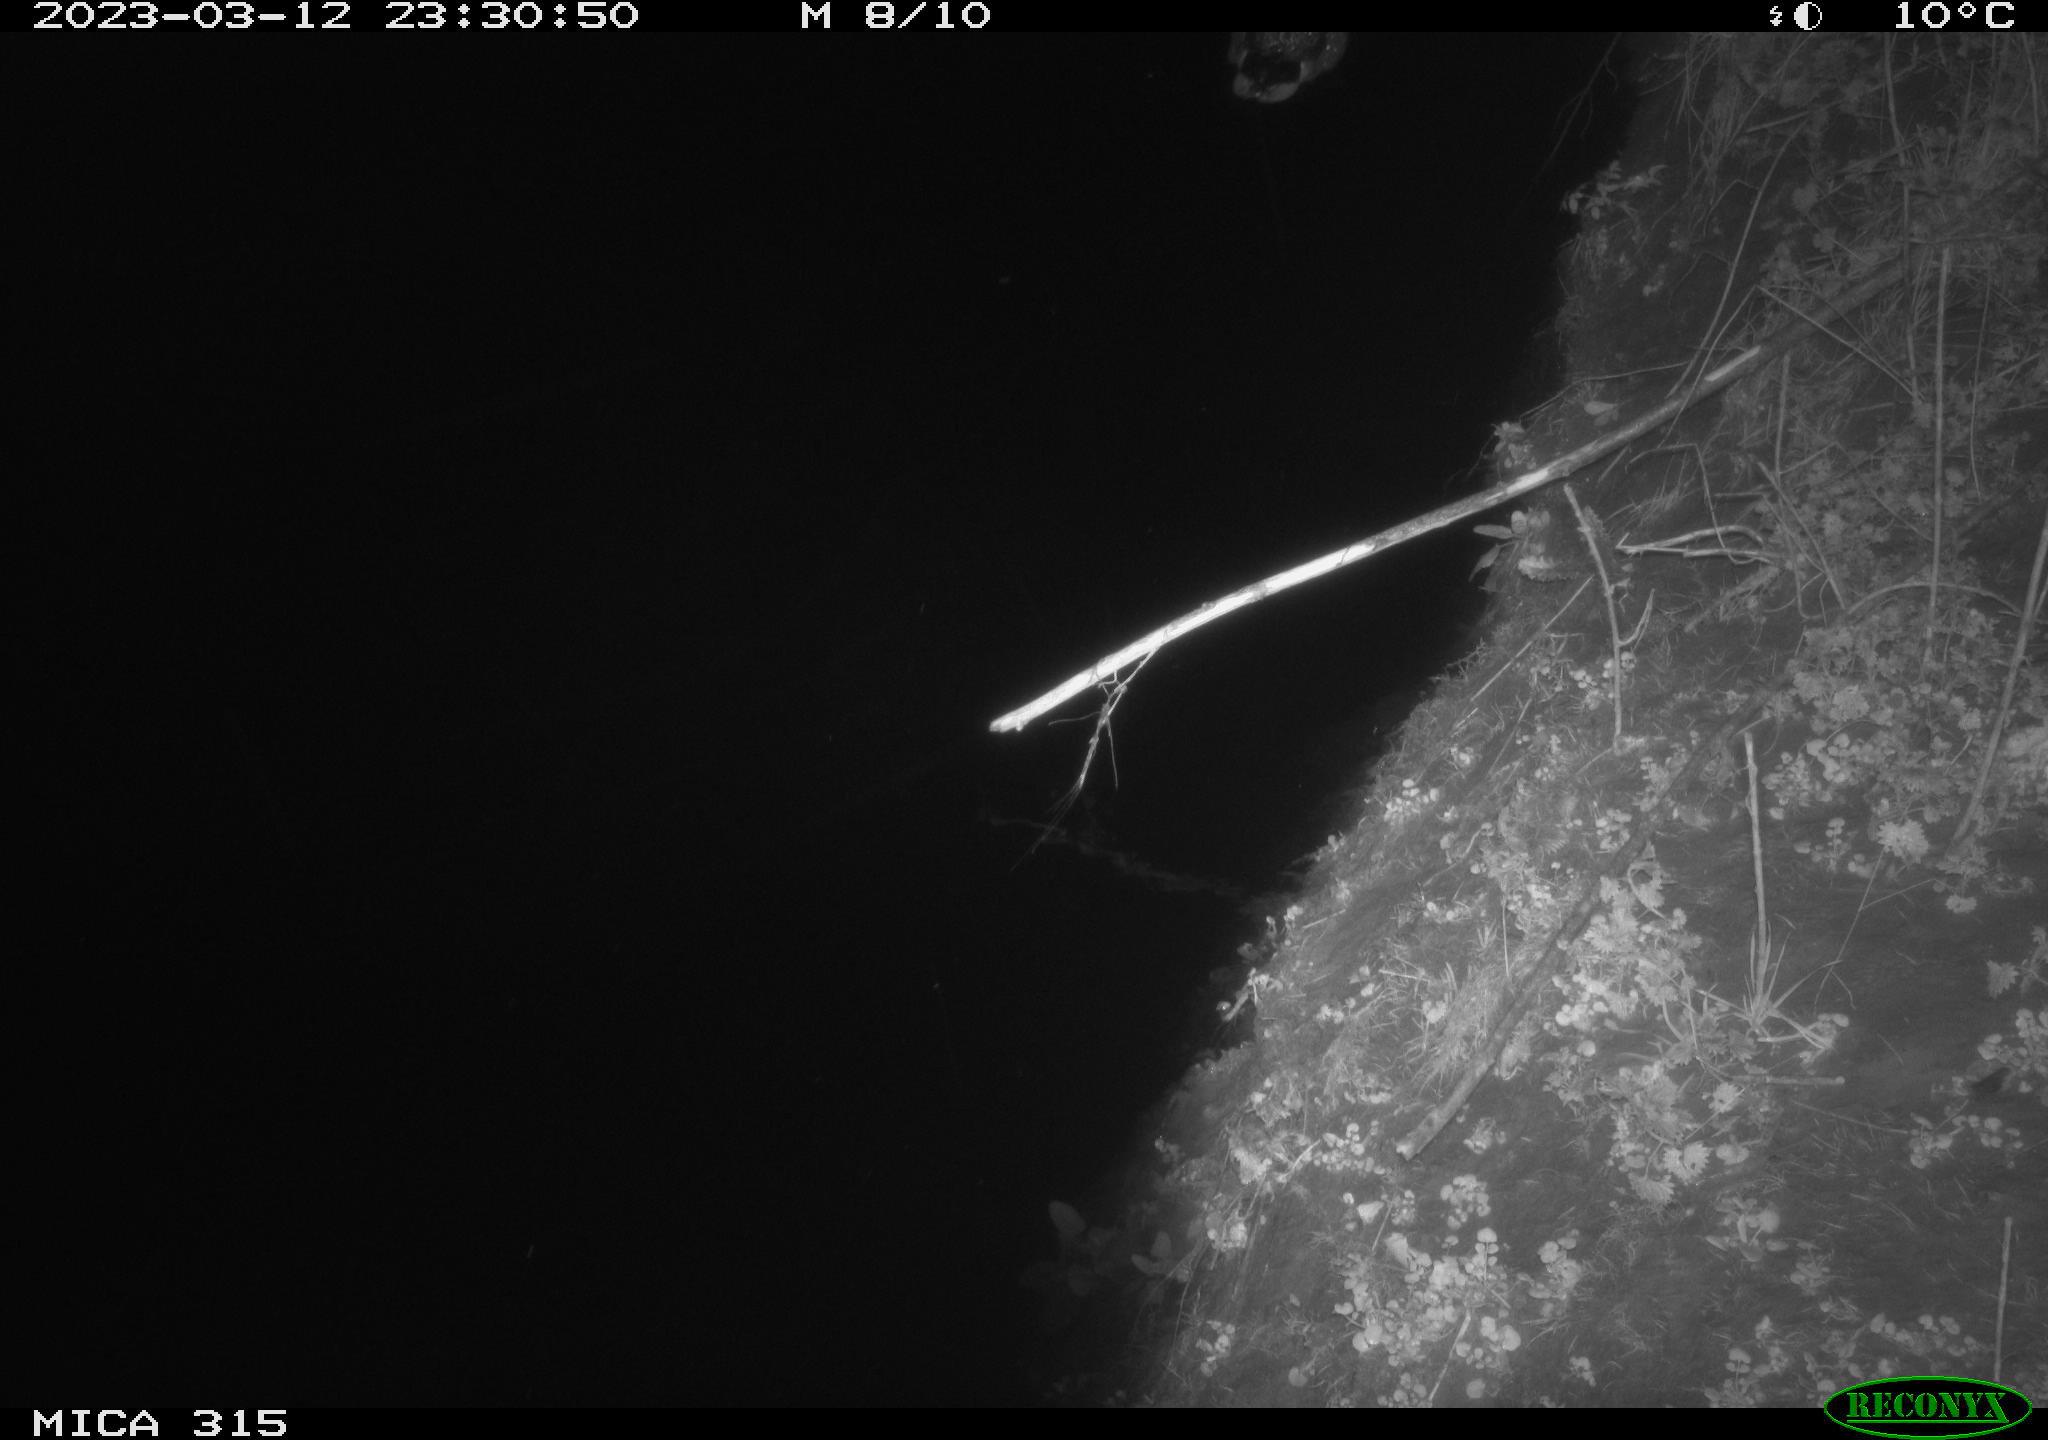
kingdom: Animalia
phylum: Chordata
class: Aves
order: Anseriformes
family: Anatidae
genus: Anas
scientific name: Anas
